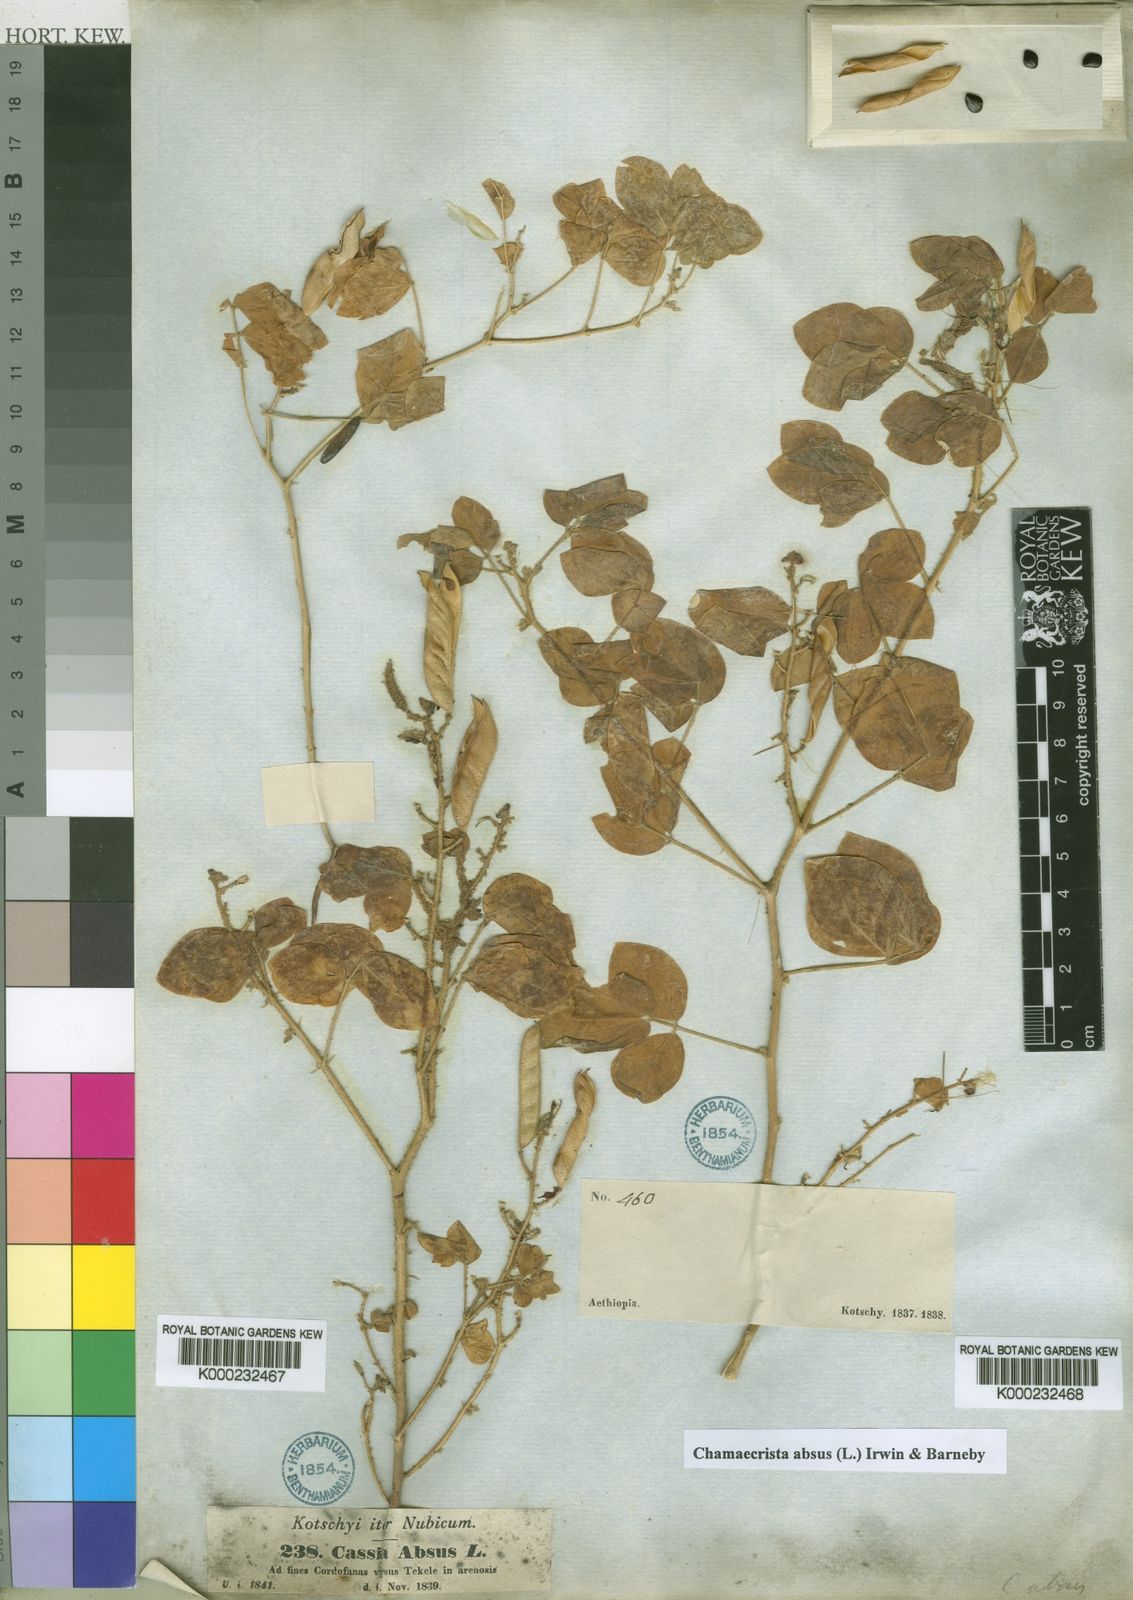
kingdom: Plantae
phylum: Tracheophyta
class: Magnoliopsida
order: Fabales
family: Fabaceae
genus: Chamaecrista
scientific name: Chamaecrista absus
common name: Tropical sensitive pea
